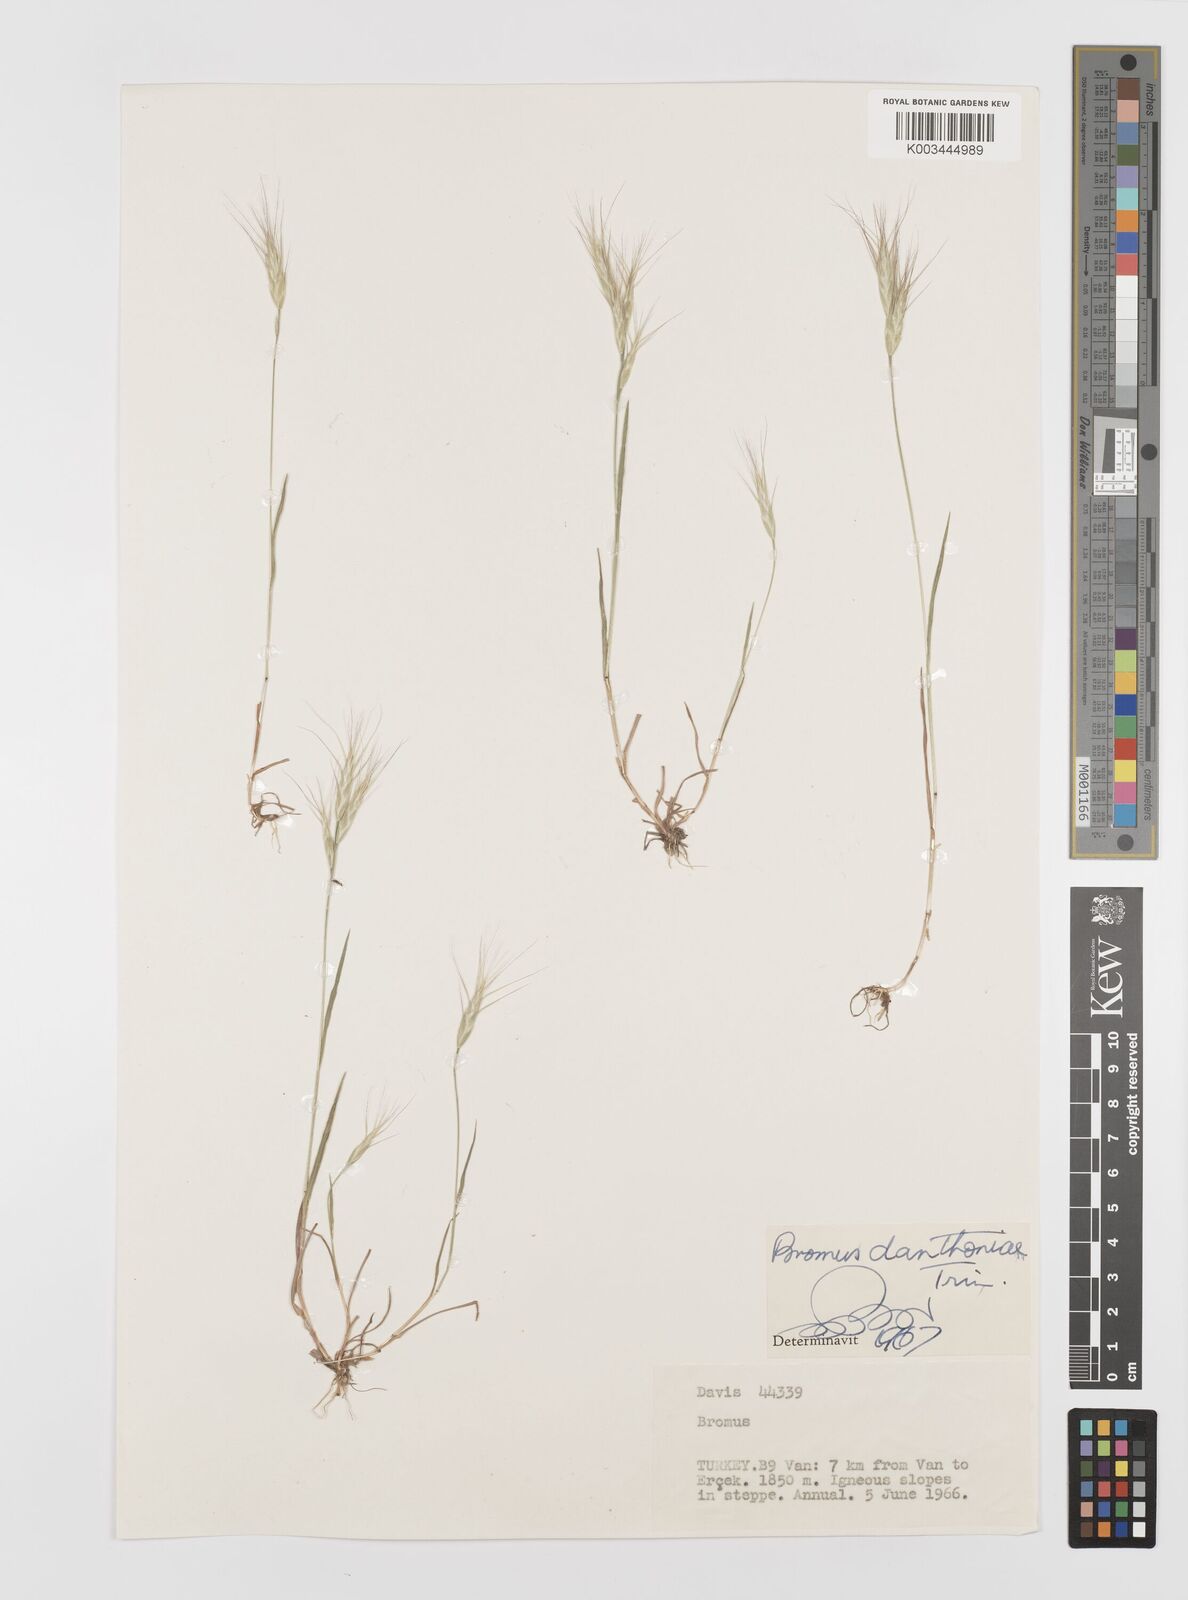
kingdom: Plantae
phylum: Tracheophyta
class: Liliopsida
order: Poales
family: Poaceae
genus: Bromus
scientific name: Bromus danthoniae
